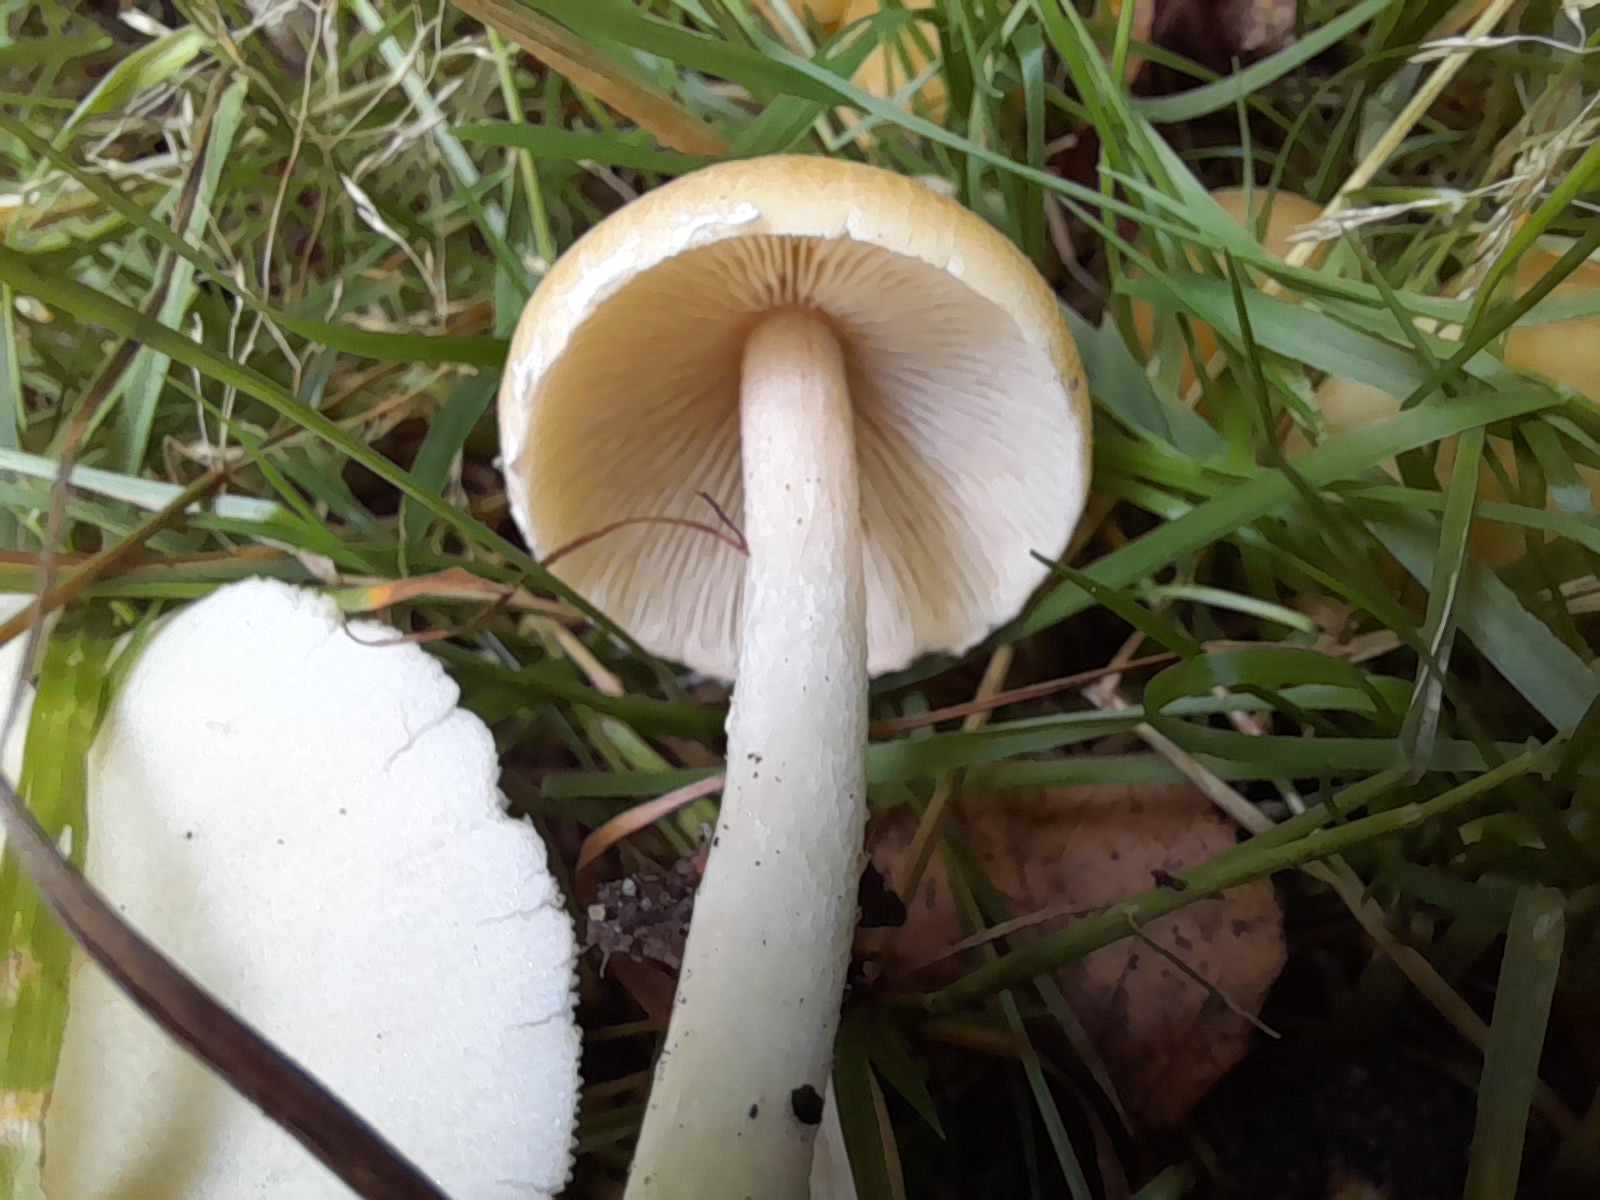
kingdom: Fungi
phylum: Basidiomycota
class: Agaricomycetes
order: Agaricales
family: Psathyrellaceae
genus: Candolleomyces
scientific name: Candolleomyces candolleanus
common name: Candolles mørkhat
